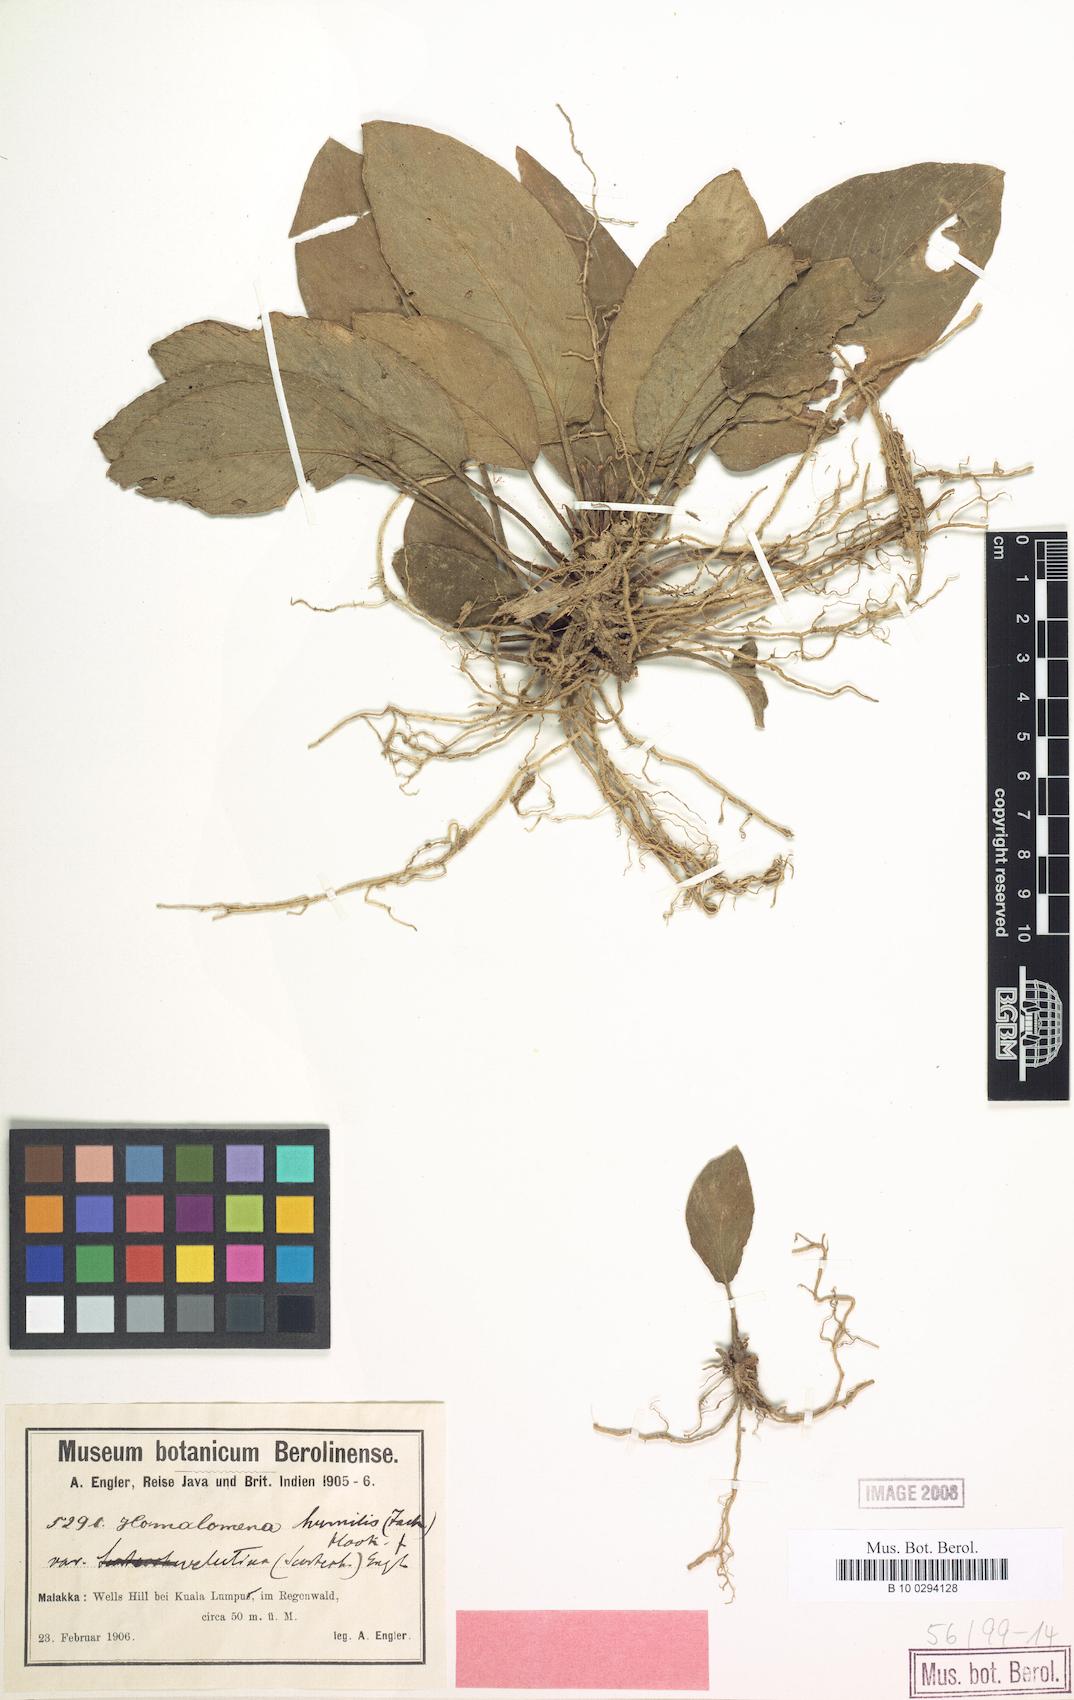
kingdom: Plantae
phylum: Tracheophyta
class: Liliopsida
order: Alismatales
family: Araceae
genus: Homalomena
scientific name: Homalomena humilis
